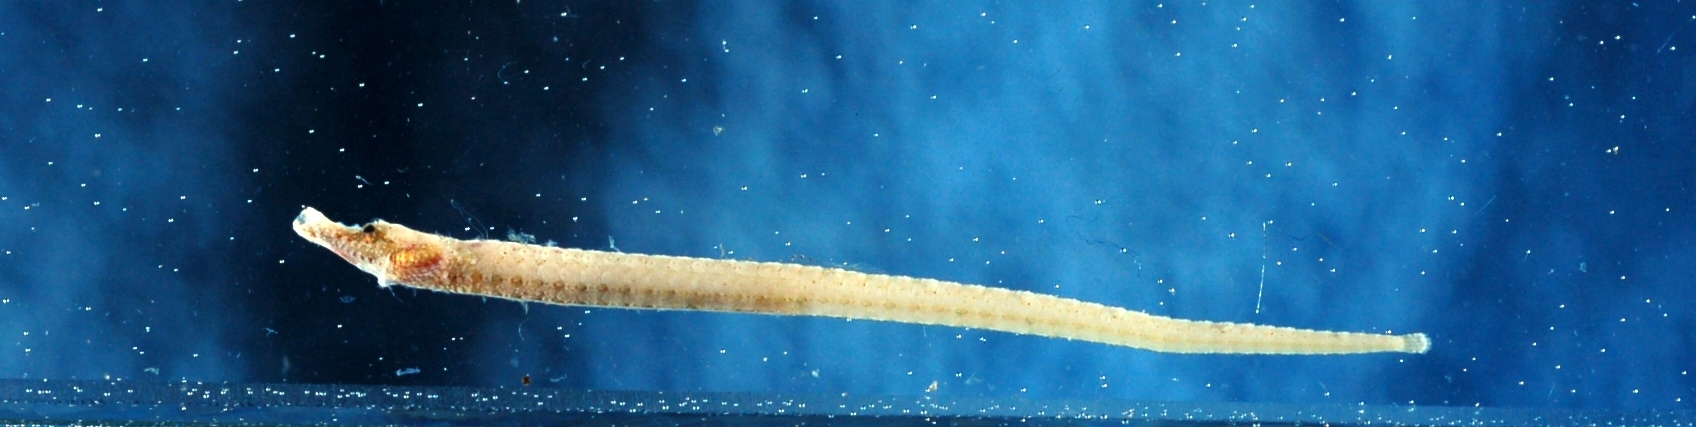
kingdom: Animalia
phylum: Chordata
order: Syngnathiformes
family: Syngnathidae
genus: Cosmocampus
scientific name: Cosmocampus banneri
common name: Banner's pipefish
